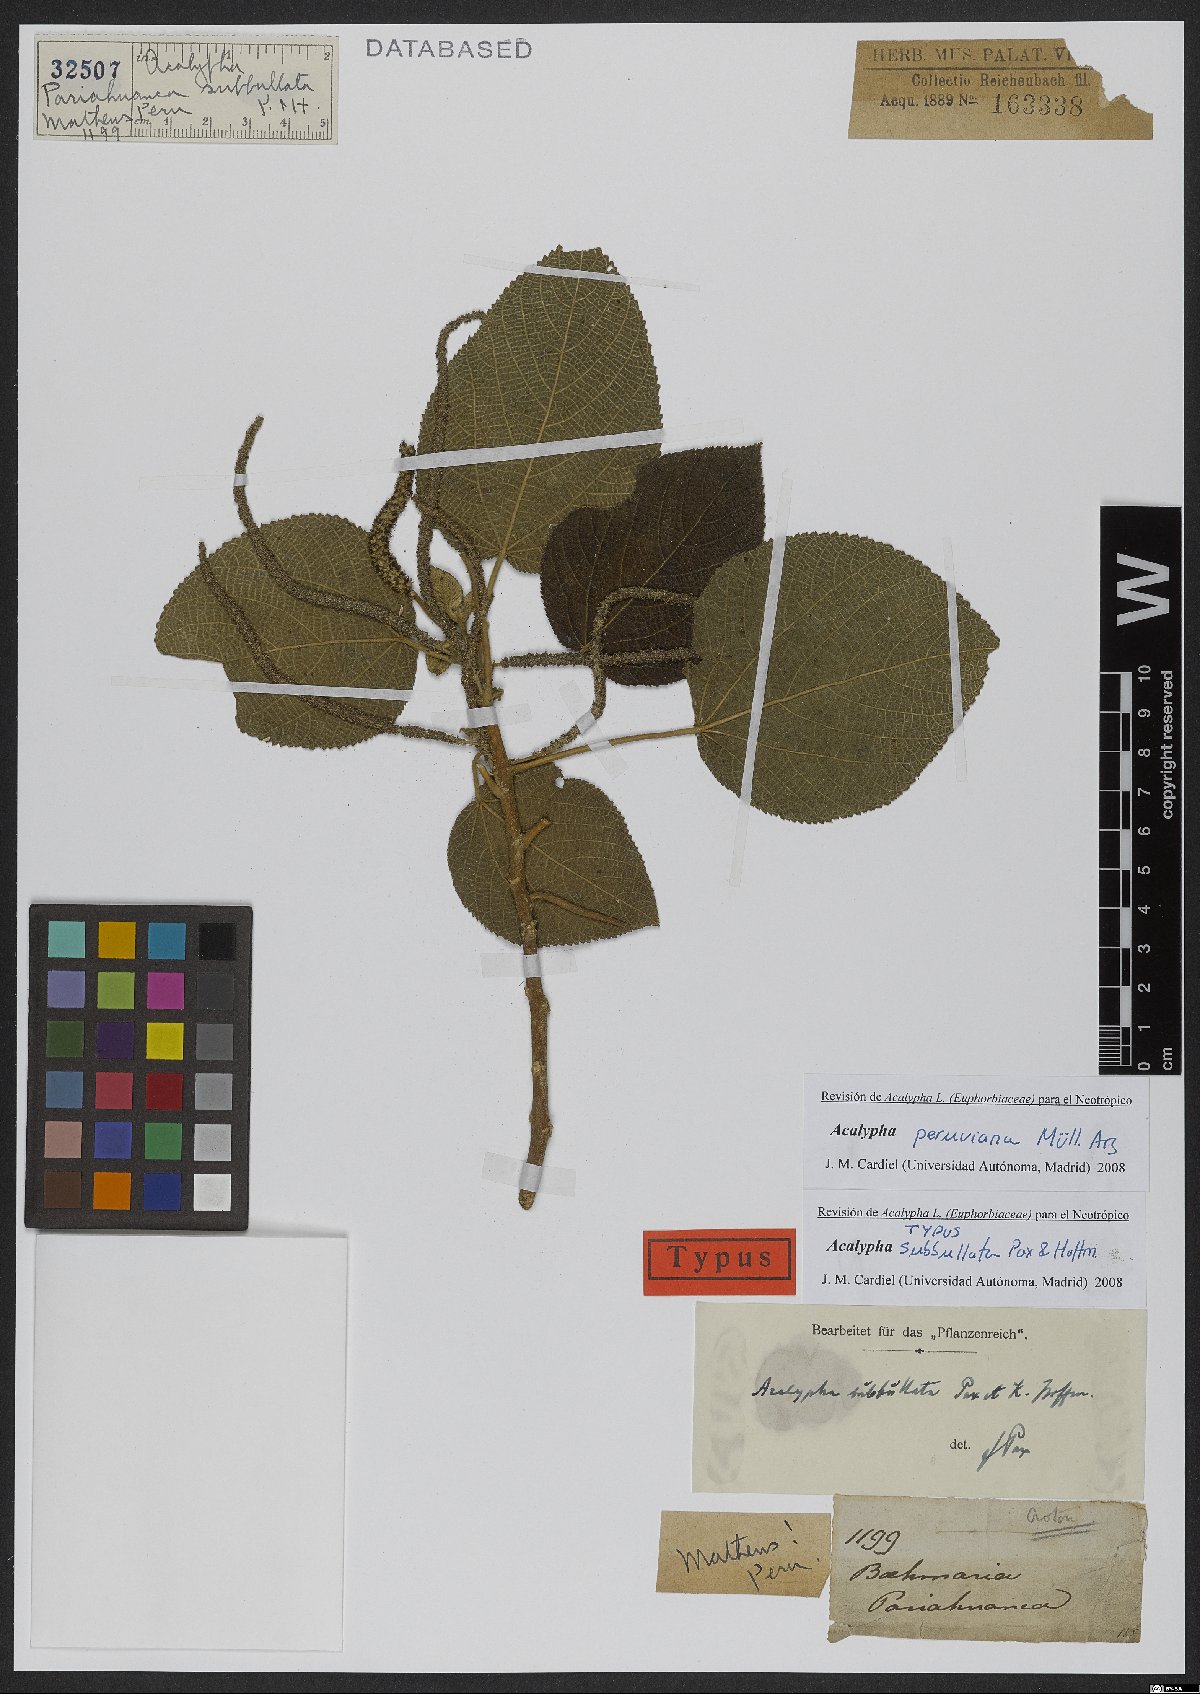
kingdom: Plantae
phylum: Tracheophyta
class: Magnoliopsida
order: Malpighiales
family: Euphorbiaceae
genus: Acalypha
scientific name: Acalypha peruviana
